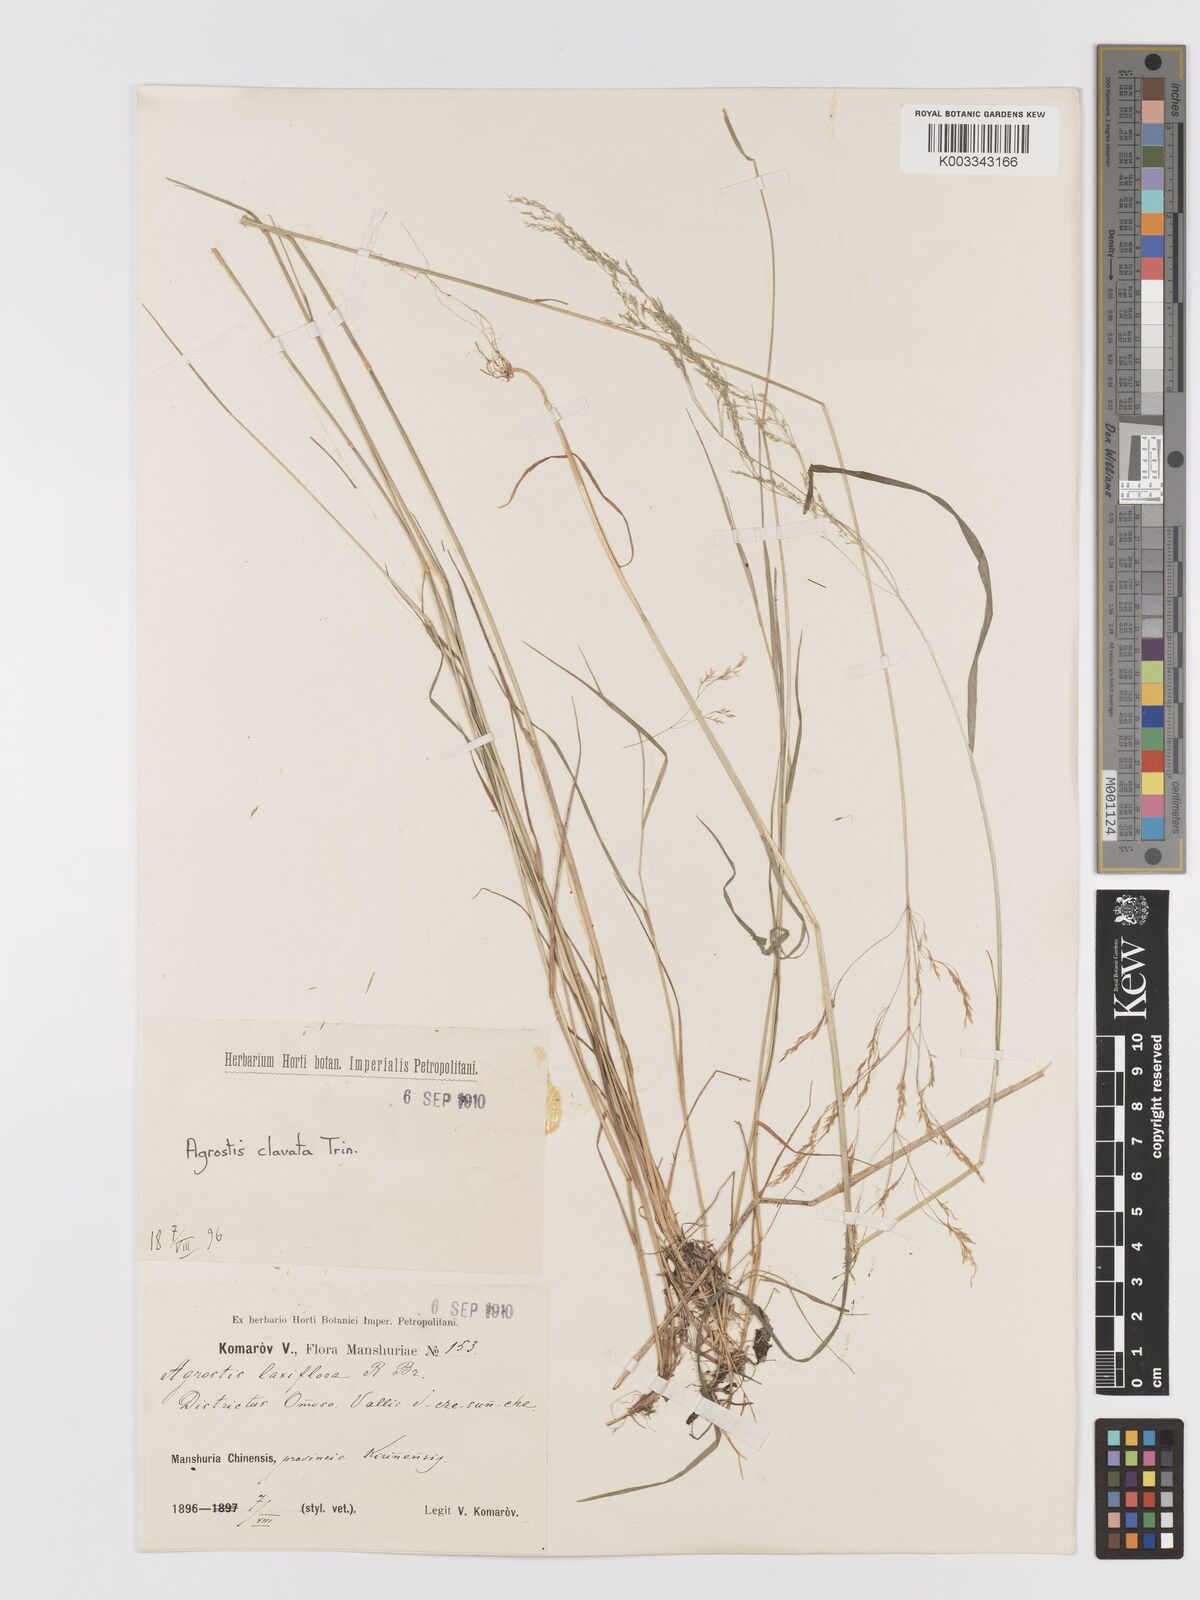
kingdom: Plantae
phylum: Tracheophyta
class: Liliopsida
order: Poales
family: Poaceae
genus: Agrostis
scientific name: Agrostis clavata
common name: Clavate bent
